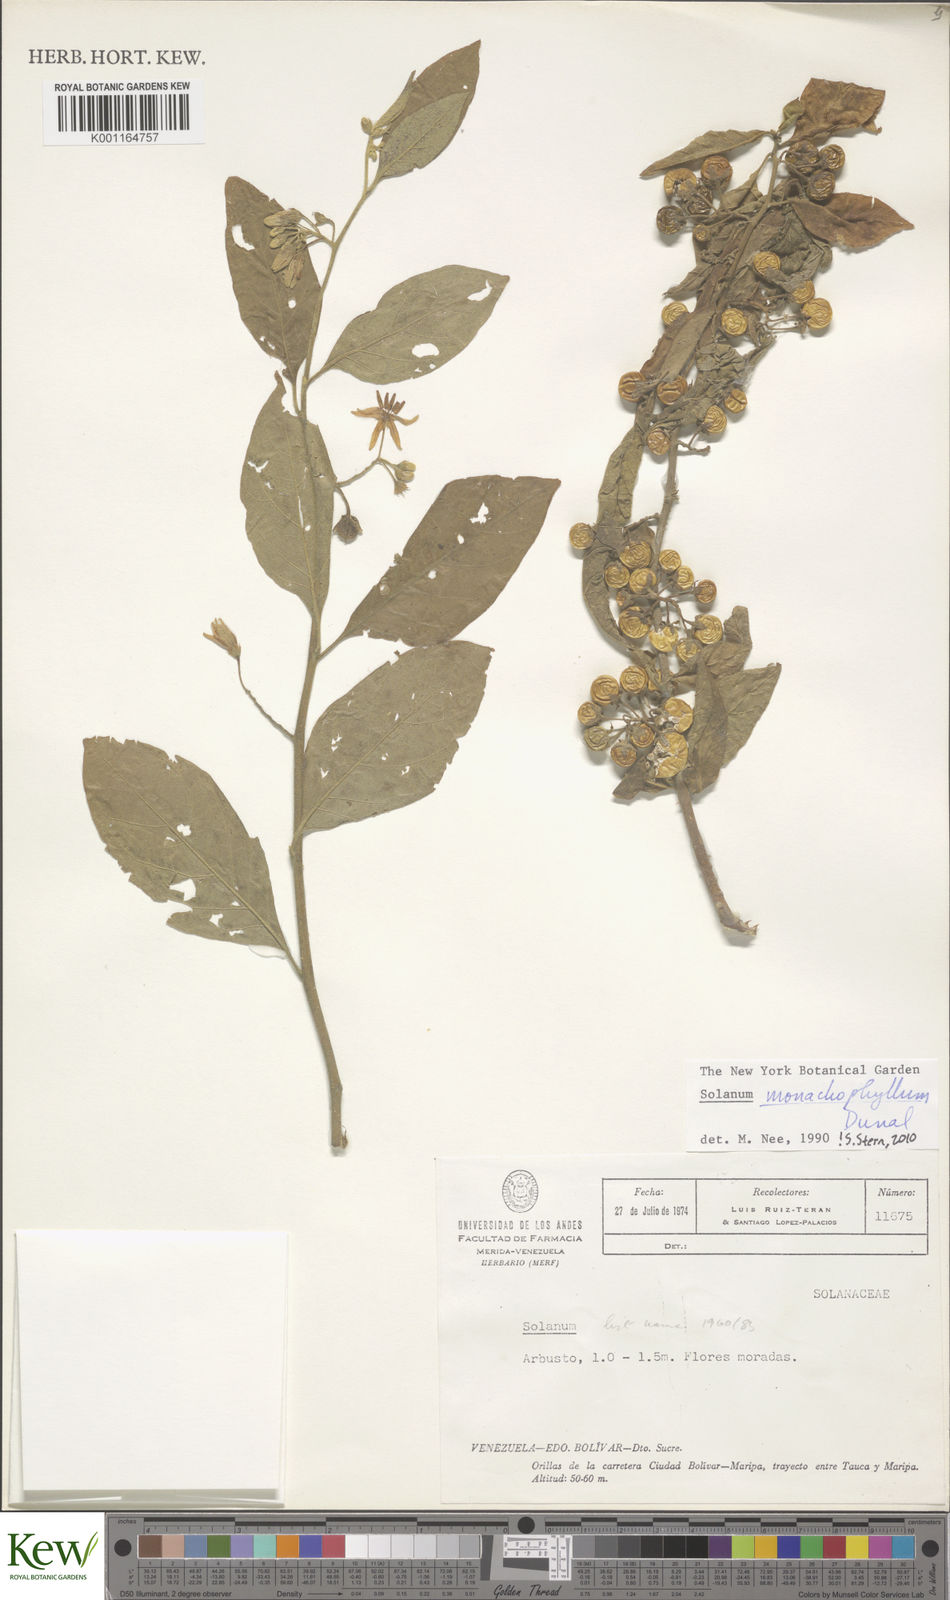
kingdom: Plantae
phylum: Tracheophyta
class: Magnoliopsida
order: Solanales
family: Solanaceae
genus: Solanum
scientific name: Solanum monachophyllum
